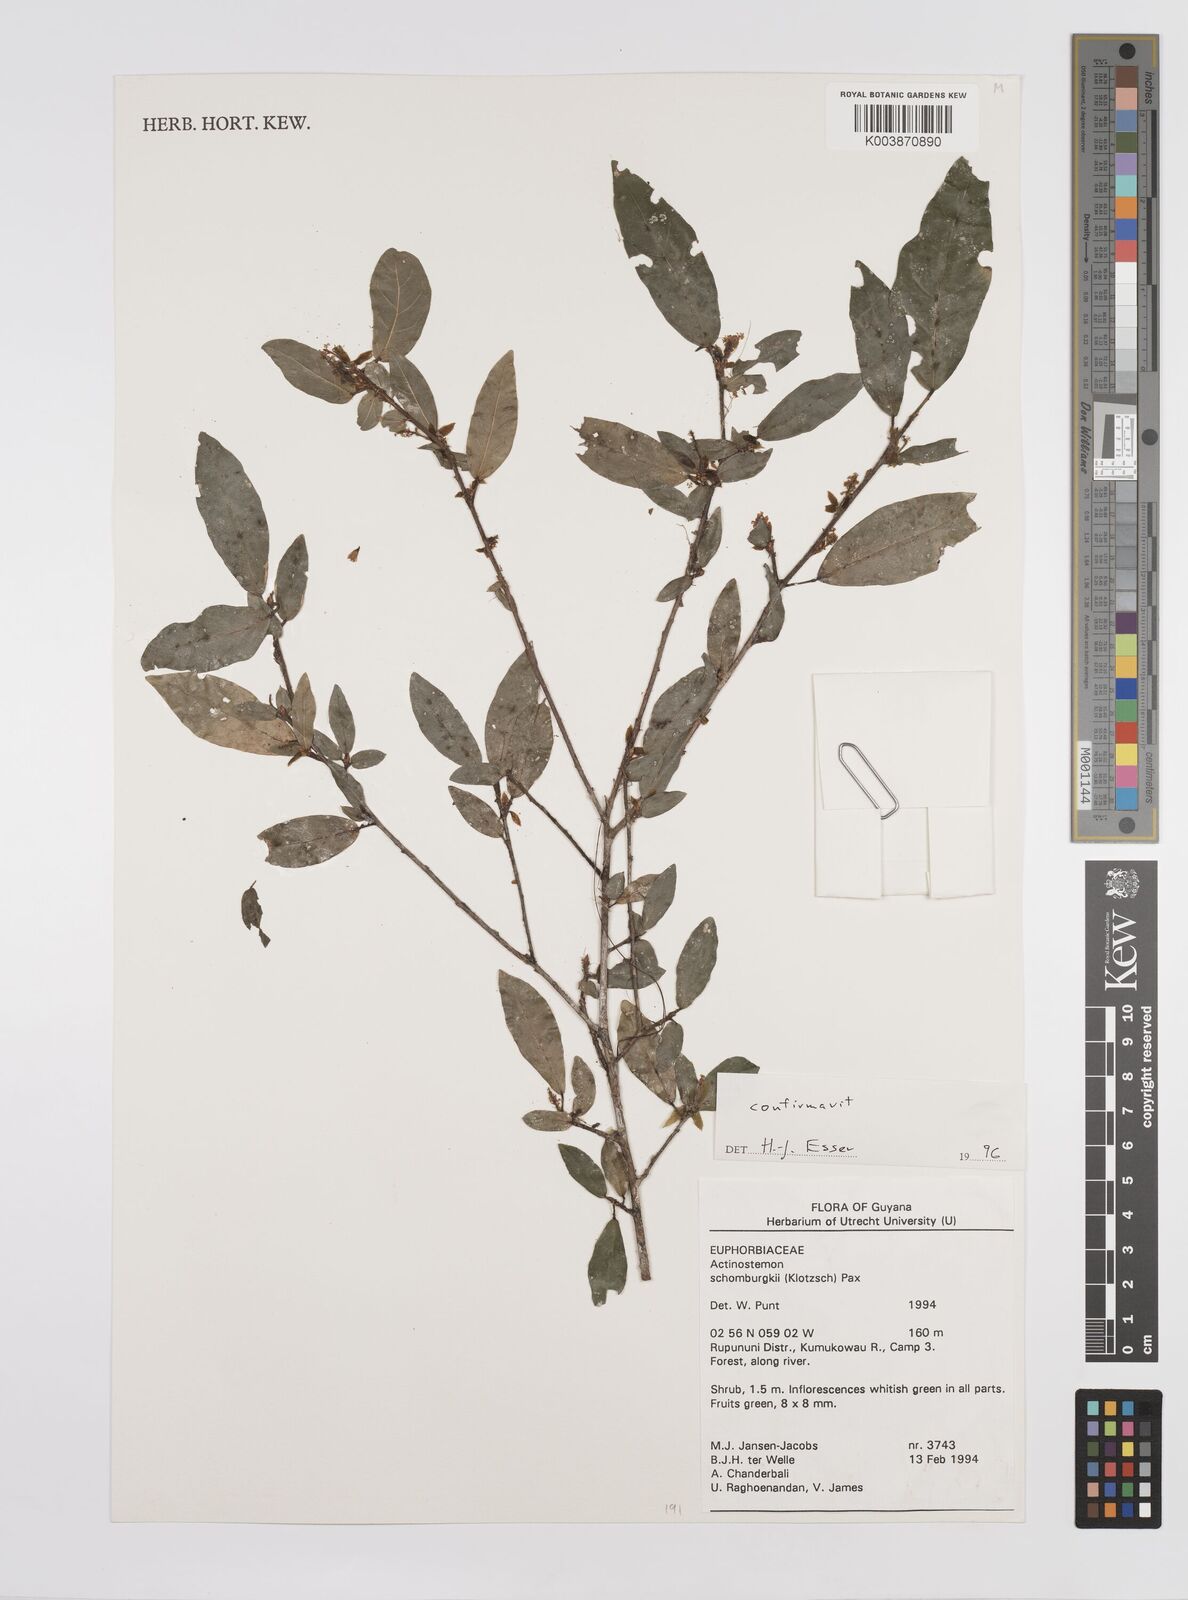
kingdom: Plantae
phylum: Tracheophyta
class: Magnoliopsida
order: Malpighiales
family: Euphorbiaceae
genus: Actinostemon
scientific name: Actinostemon schomburgkii
